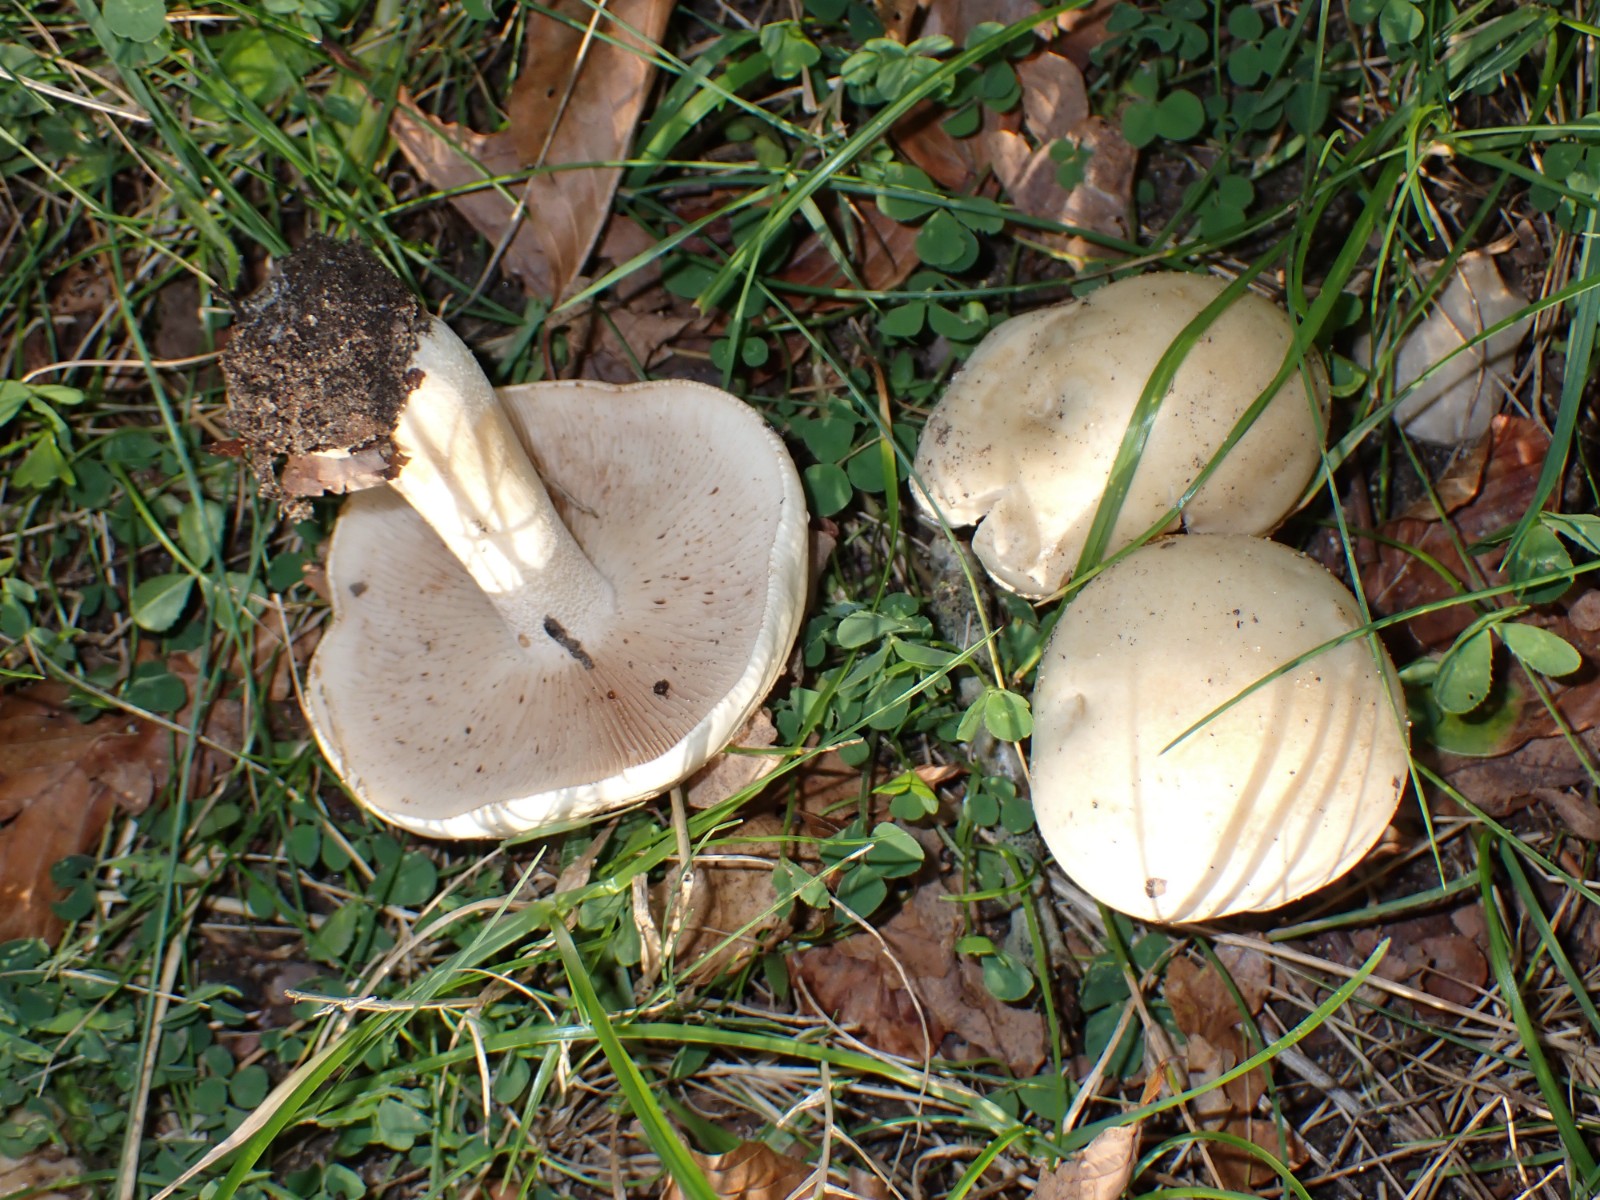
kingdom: Fungi
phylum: Basidiomycota
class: Agaricomycetes
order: Agaricales
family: Hymenogastraceae
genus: Hebeloma
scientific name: Hebeloma crustuliniforme
